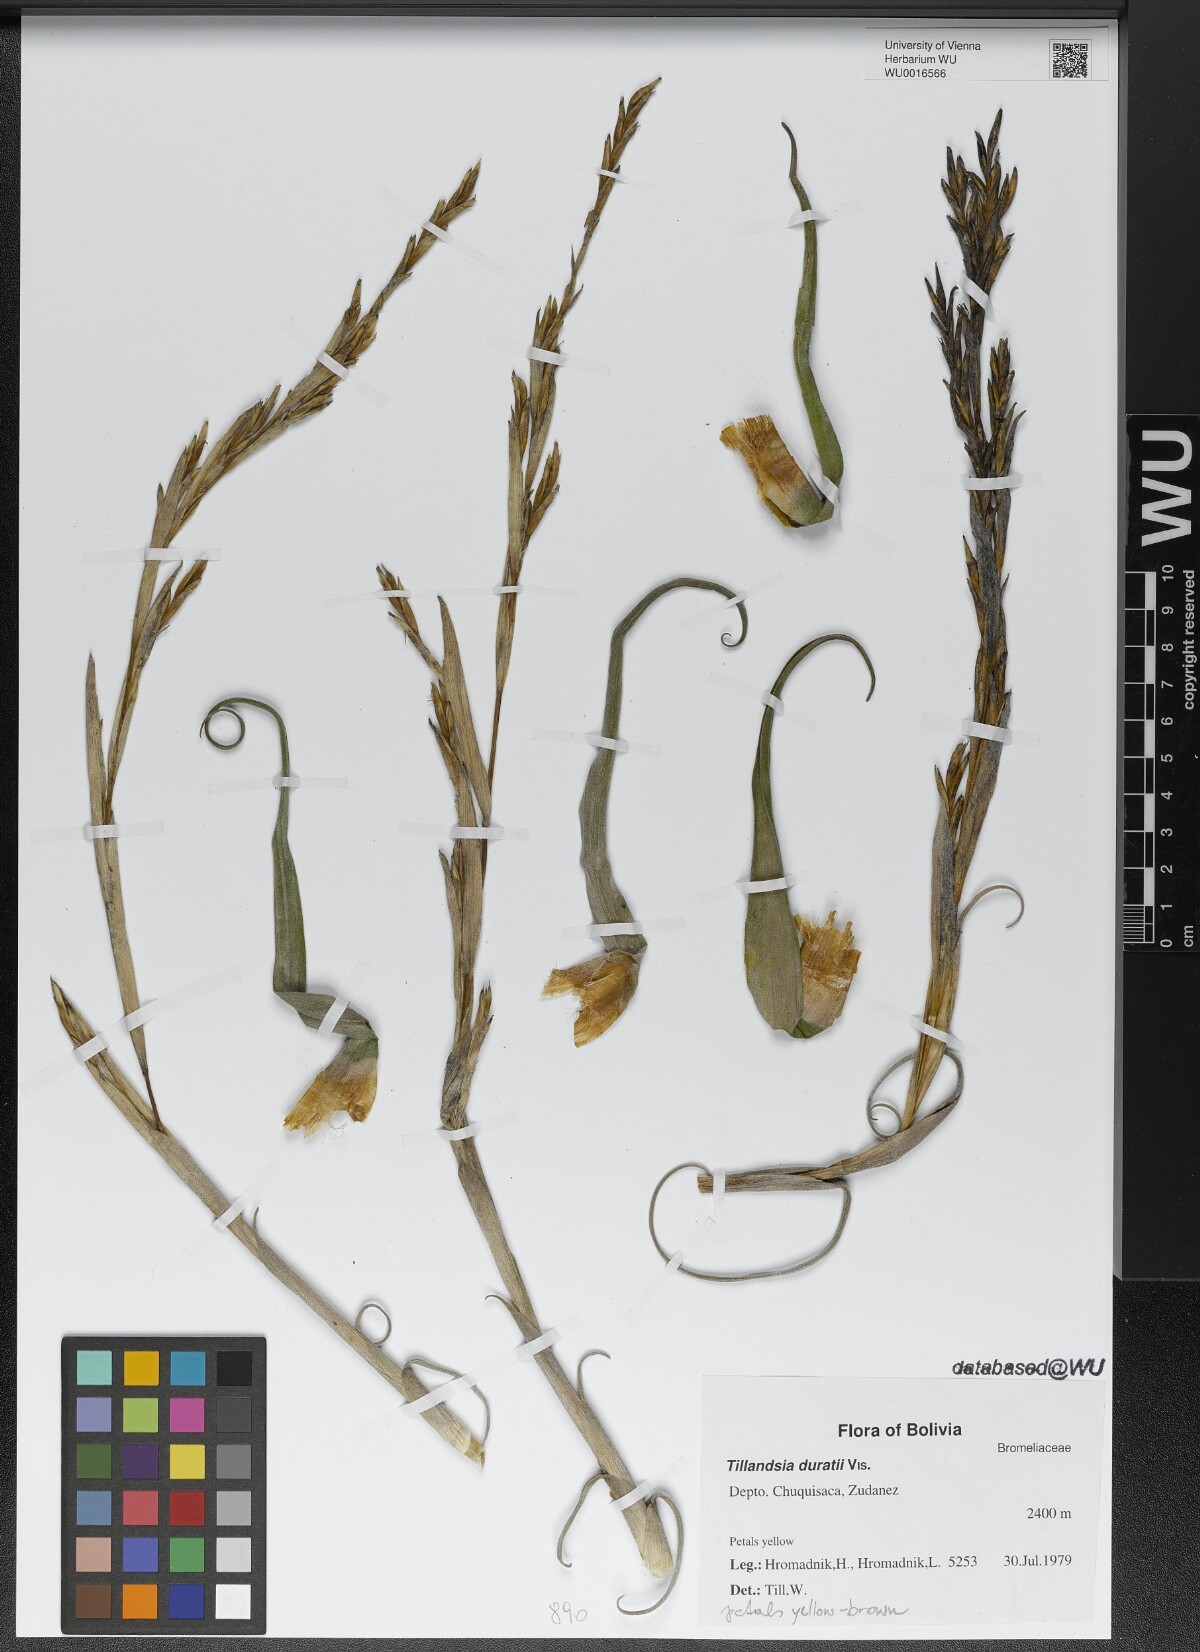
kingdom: Plantae
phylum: Tracheophyta
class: Liliopsida
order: Poales
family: Bromeliaceae
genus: Tillandsia
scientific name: Tillandsia duratii
